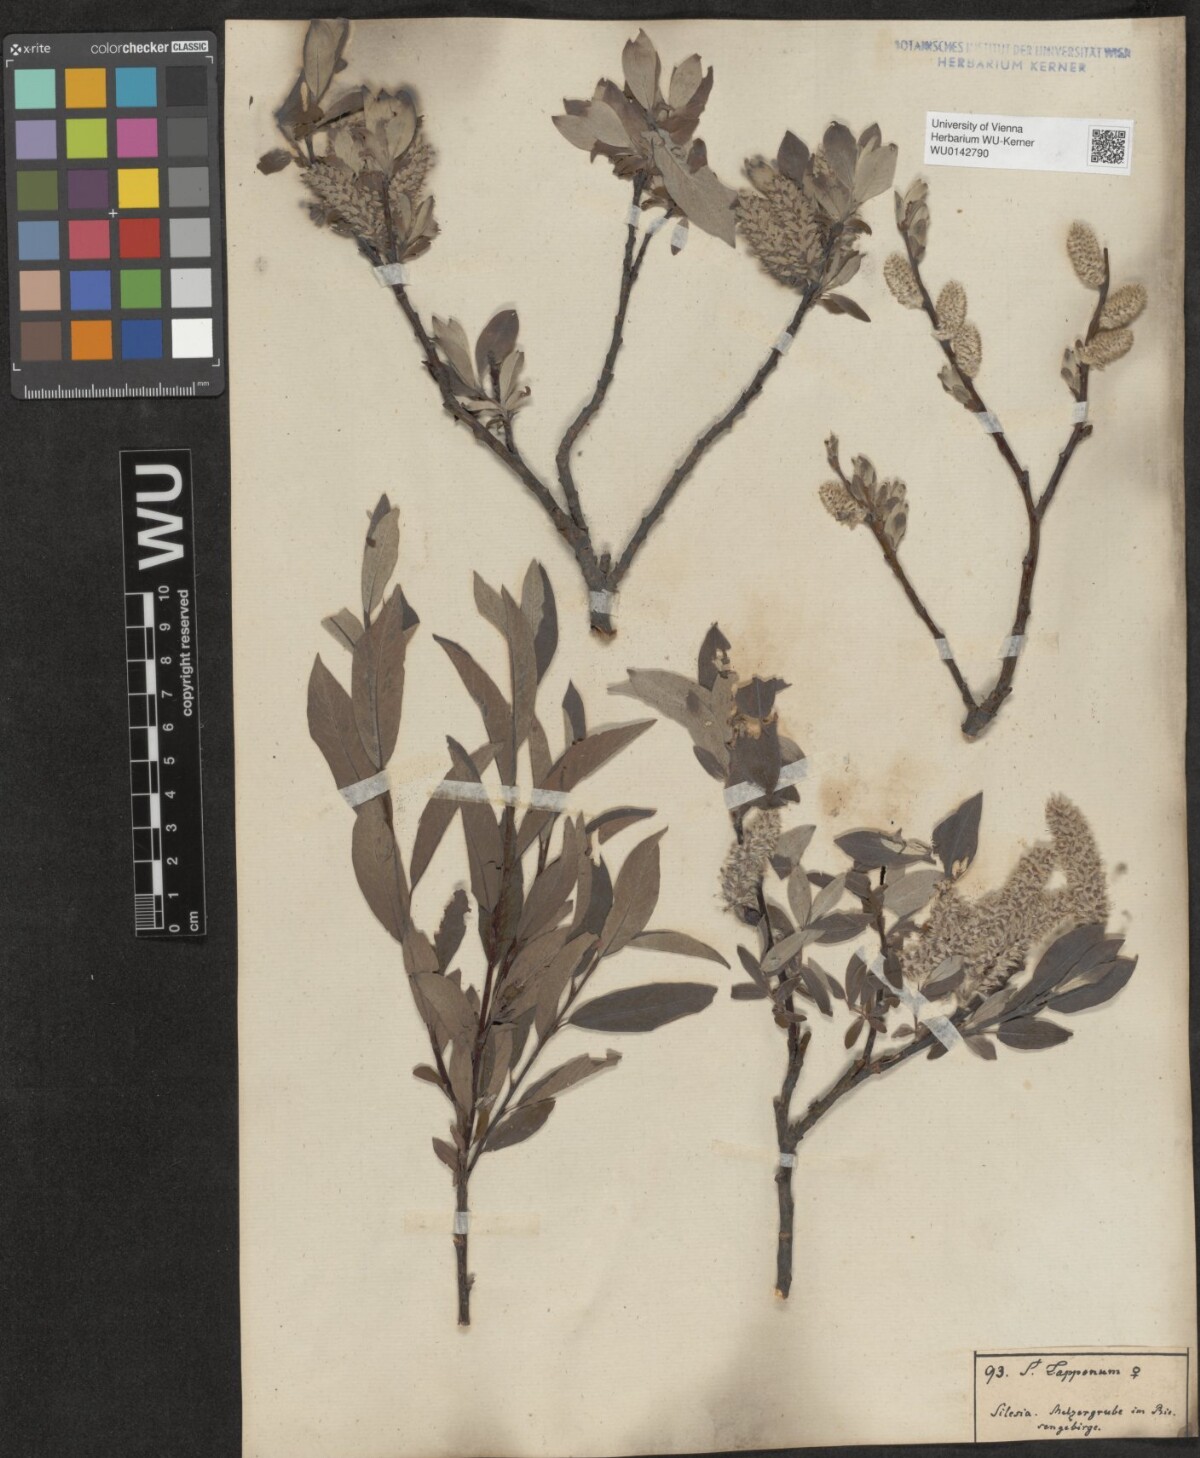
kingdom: Plantae
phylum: Tracheophyta
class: Magnoliopsida
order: Malpighiales
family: Salicaceae
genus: Salix
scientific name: Salix lapponum
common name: Downy willow
